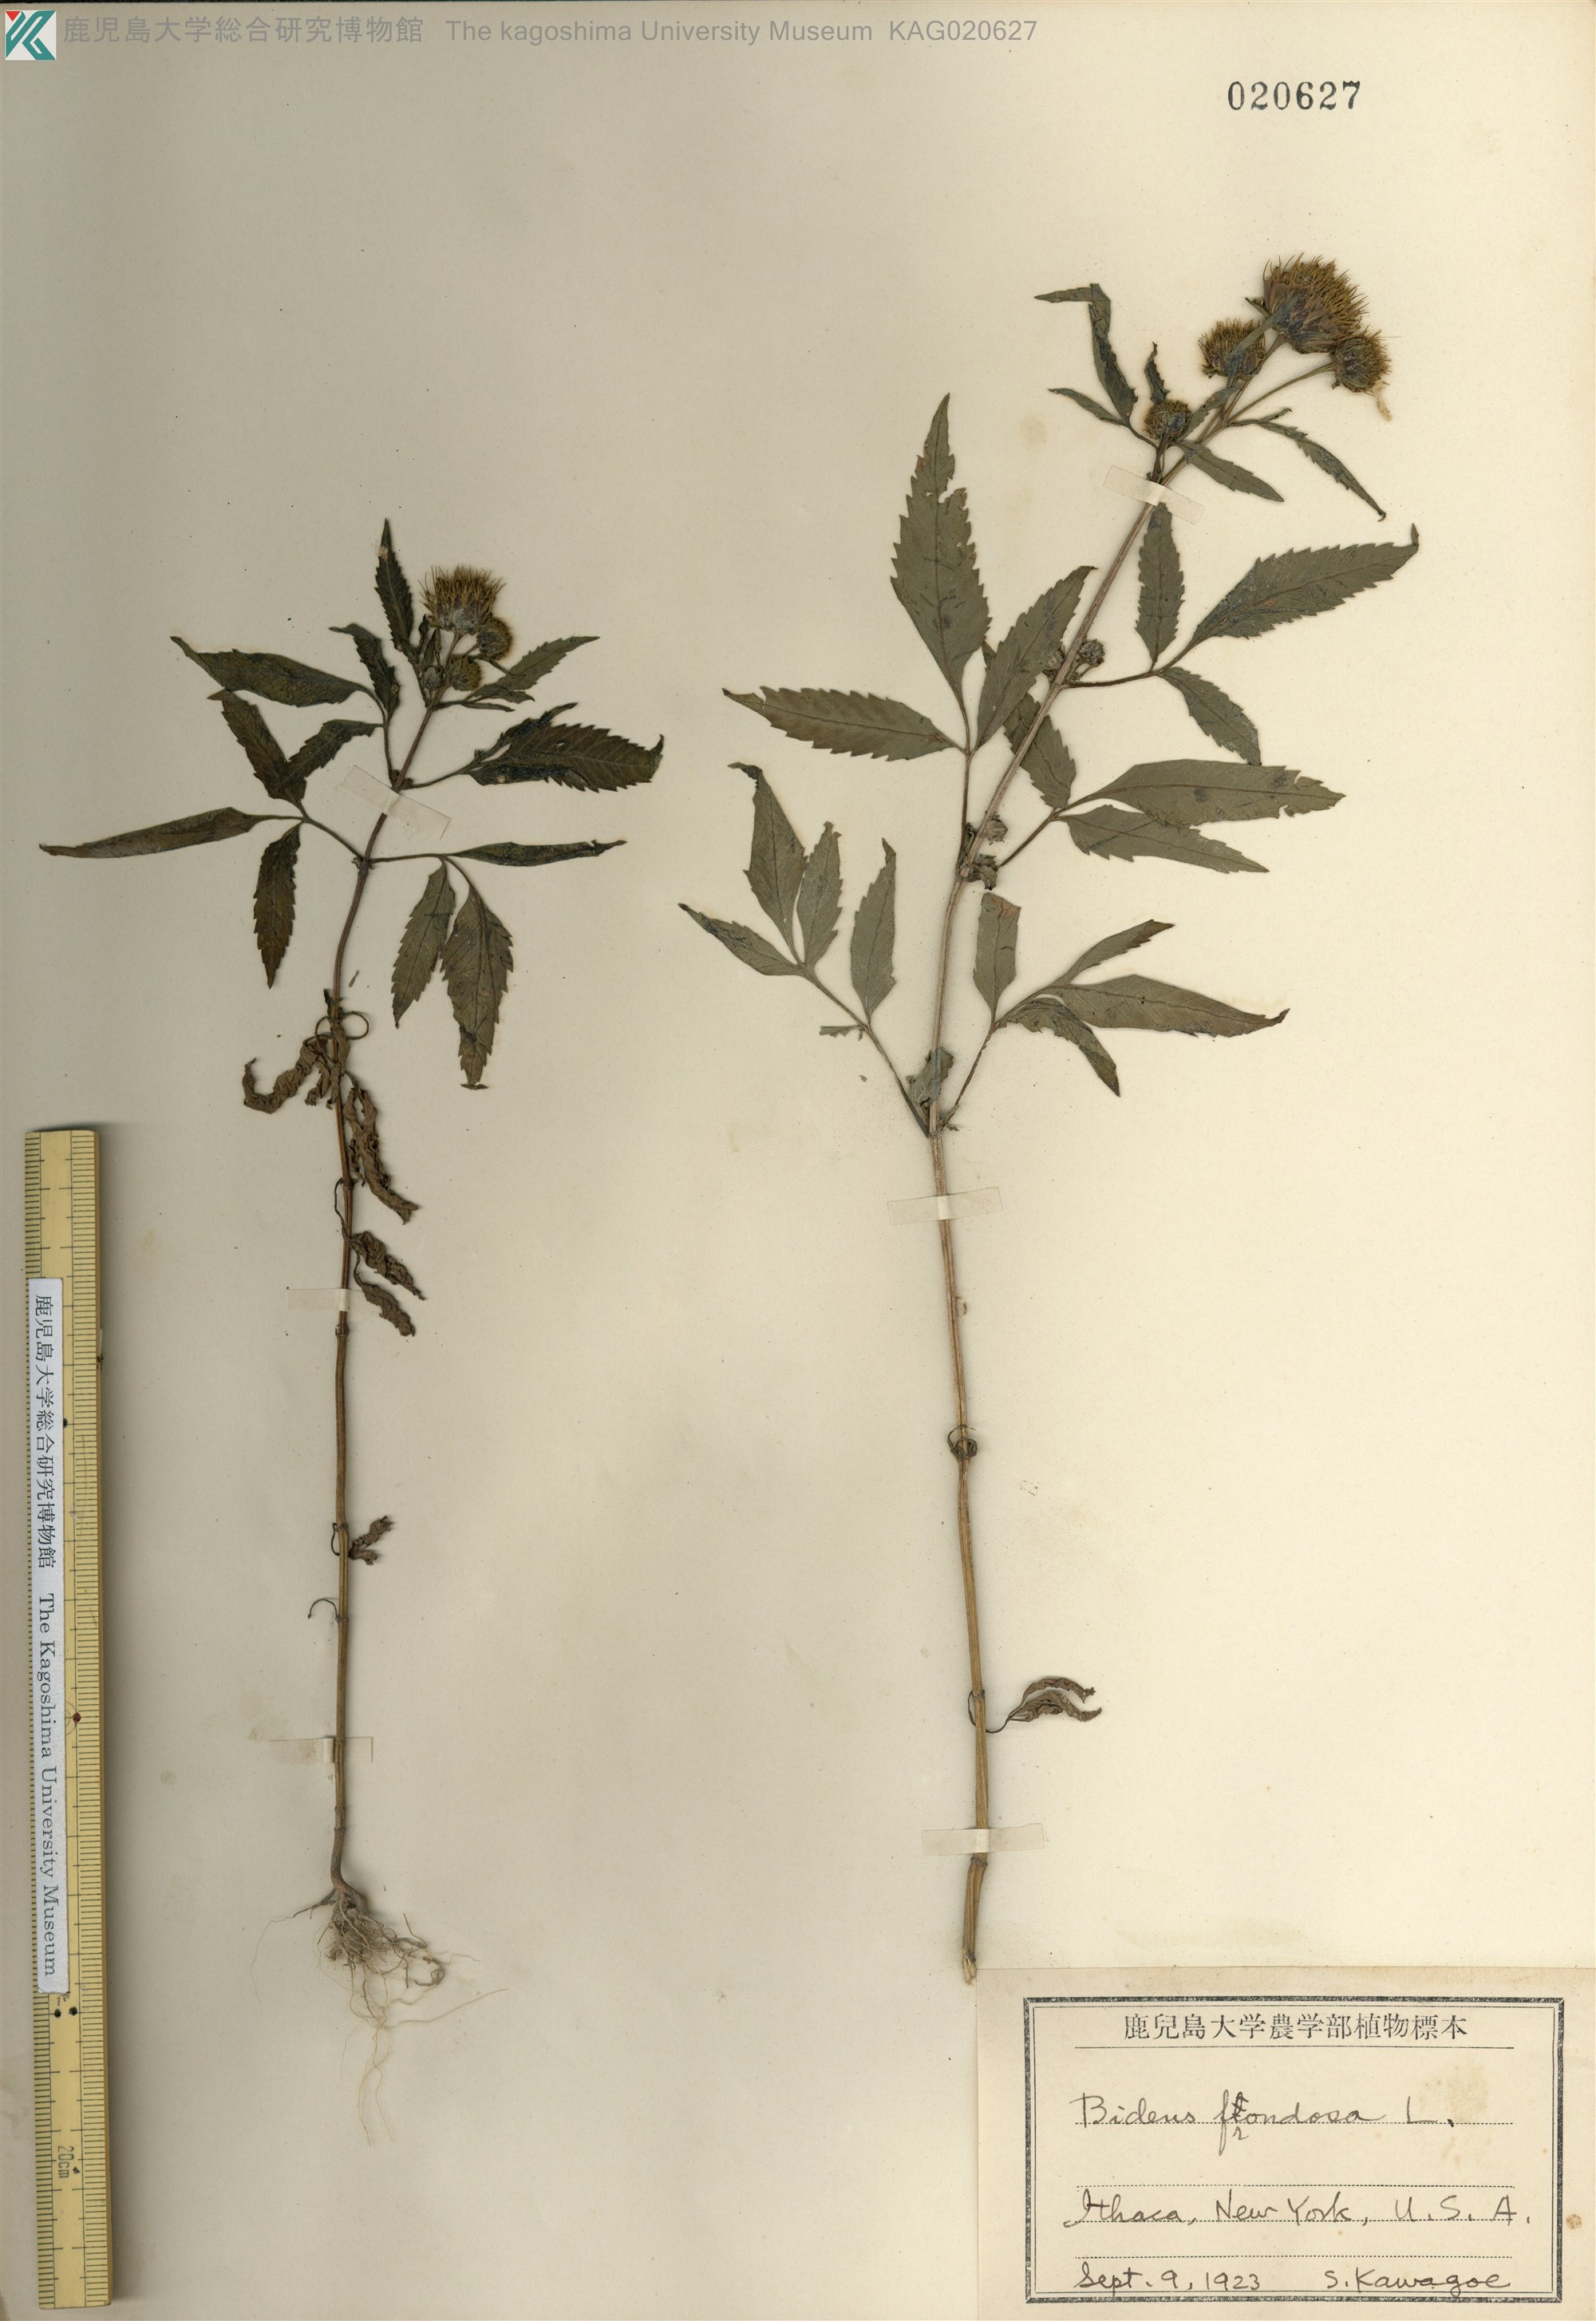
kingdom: Plantae
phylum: Tracheophyta
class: Magnoliopsida
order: Asterales
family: Asteraceae
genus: Bidens
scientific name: Bidens frondosa
